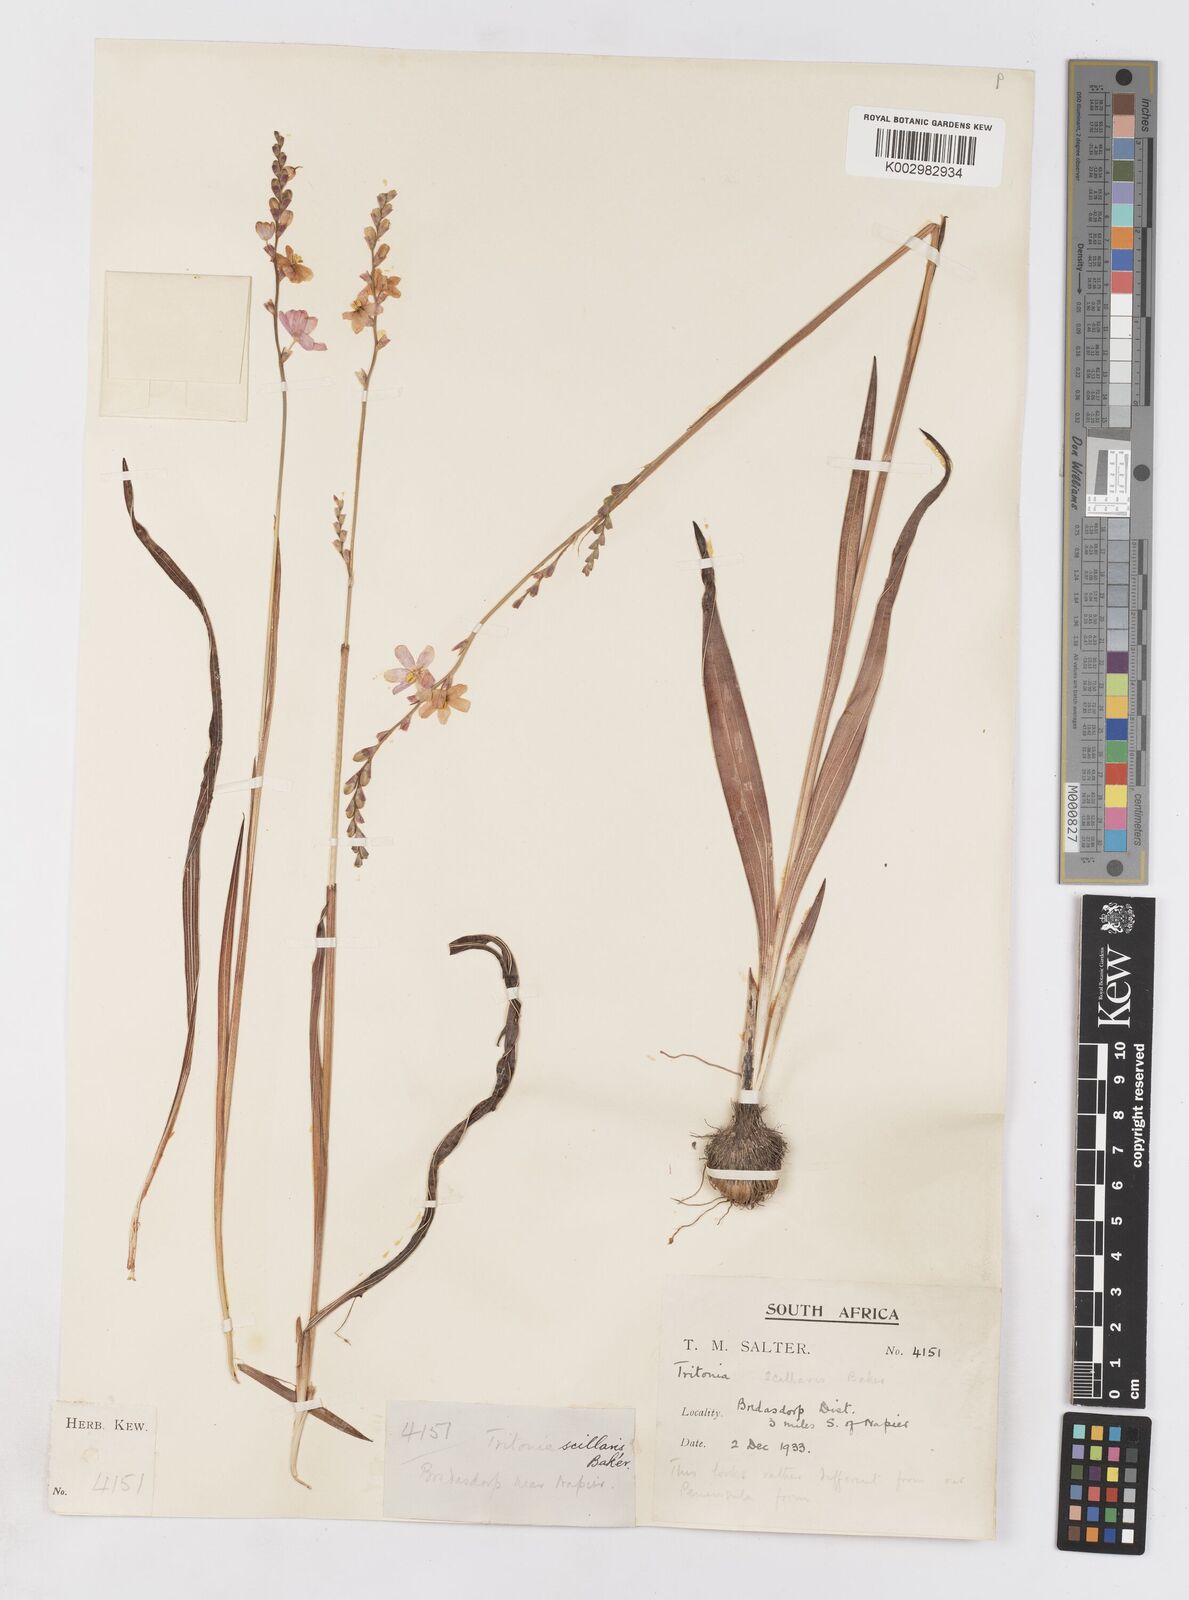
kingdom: Plantae
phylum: Tracheophyta
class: Liliopsida
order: Asparagales
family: Iridaceae
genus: Ixia
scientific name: Ixia scillaris
